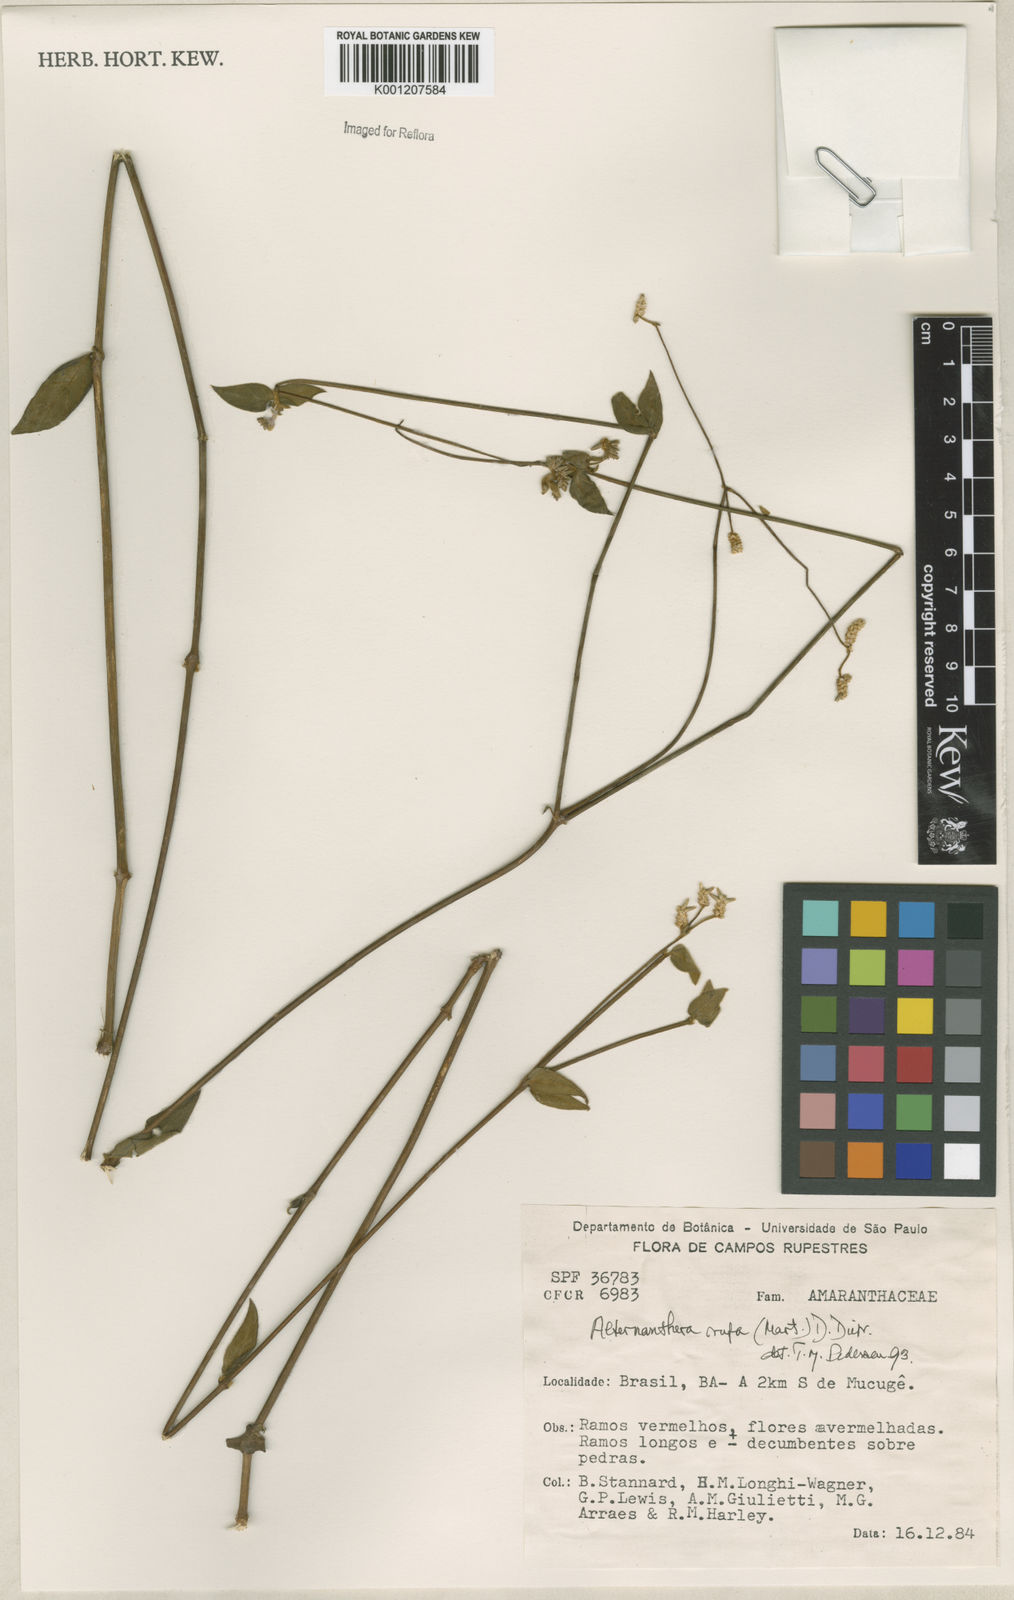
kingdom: Plantae
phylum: Tracheophyta
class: Magnoliopsida
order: Caryophyllales
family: Amaranthaceae
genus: Alternanthera
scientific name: Alternanthera rufa
